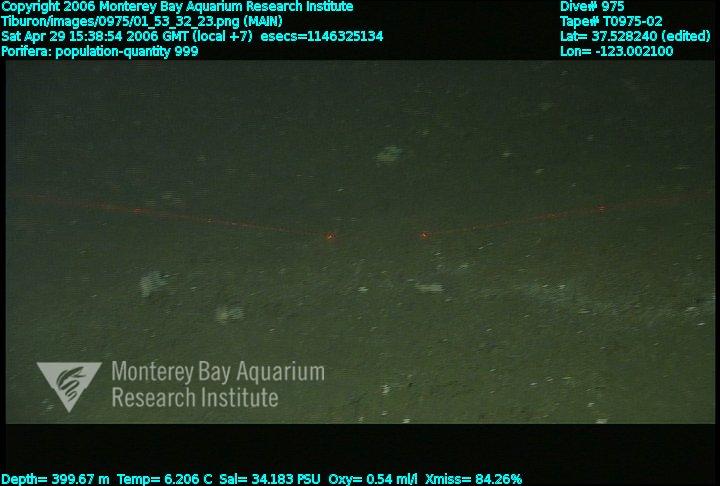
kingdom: Animalia
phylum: Porifera
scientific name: Porifera
